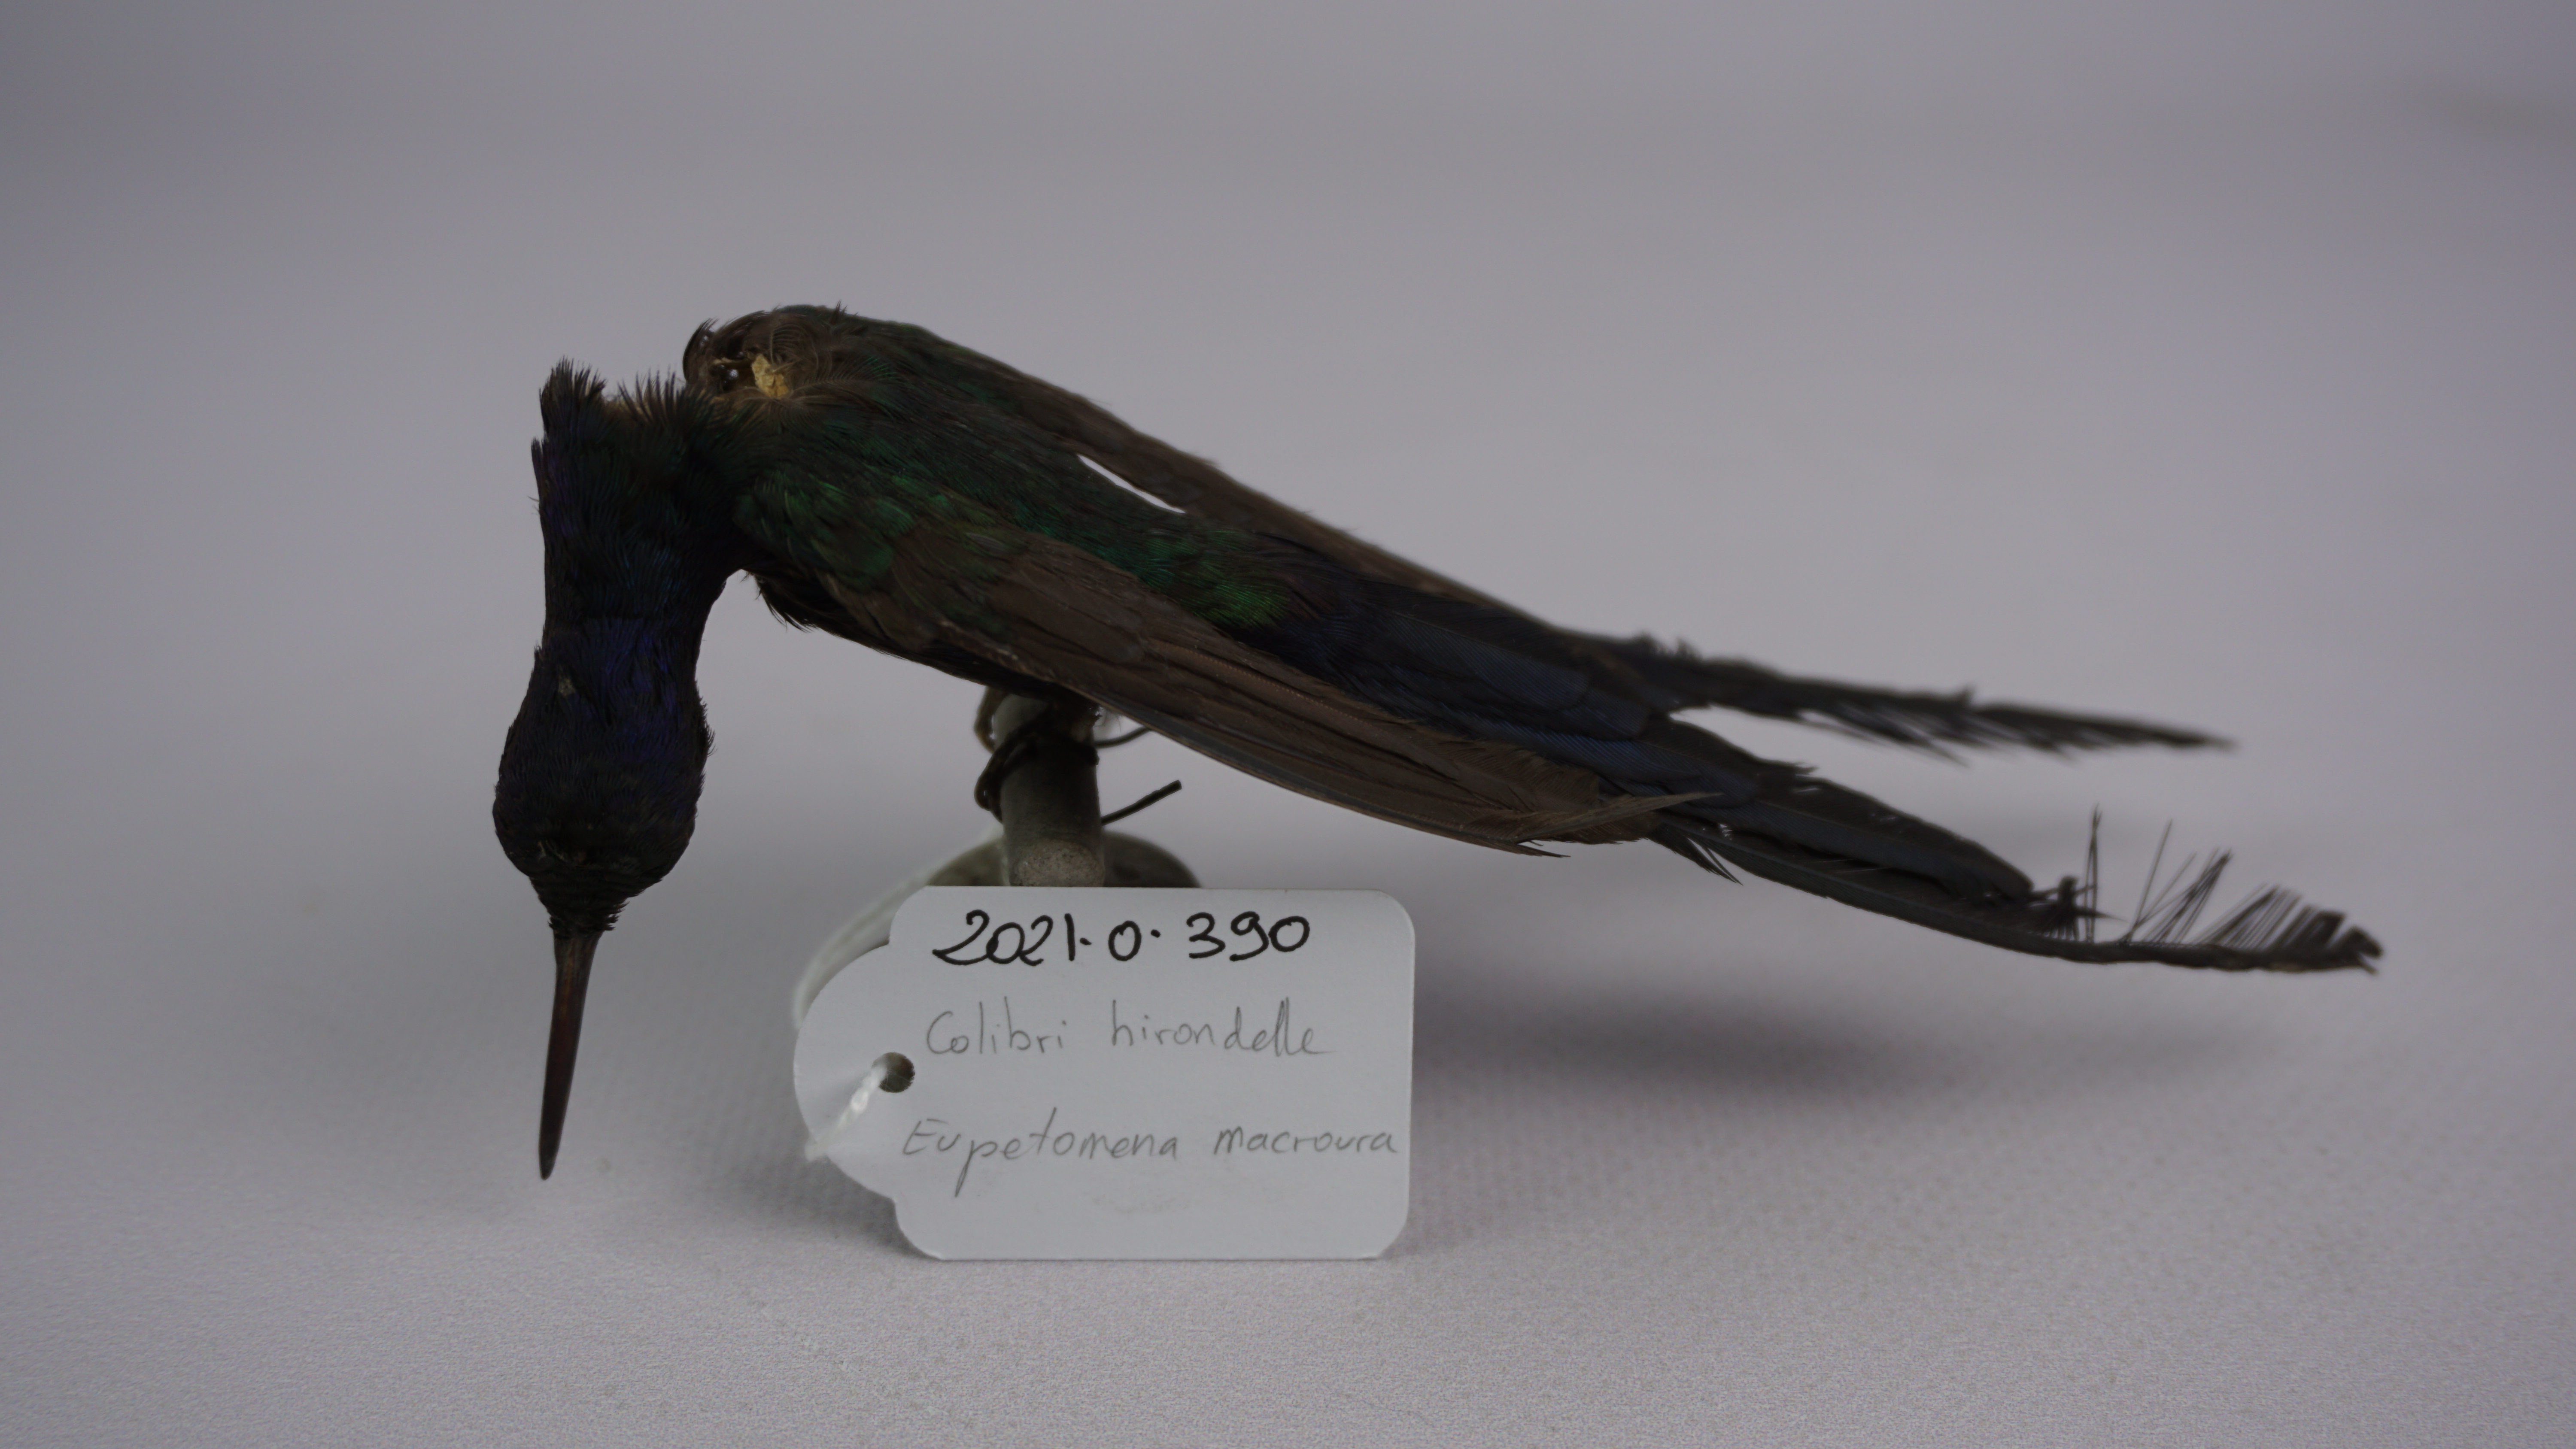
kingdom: Animalia
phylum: Chordata
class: Aves
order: Apodiformes
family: Trochilidae
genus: Eupetomena
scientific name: Eupetomena macroura
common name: Swallow-tailed hummingbird
